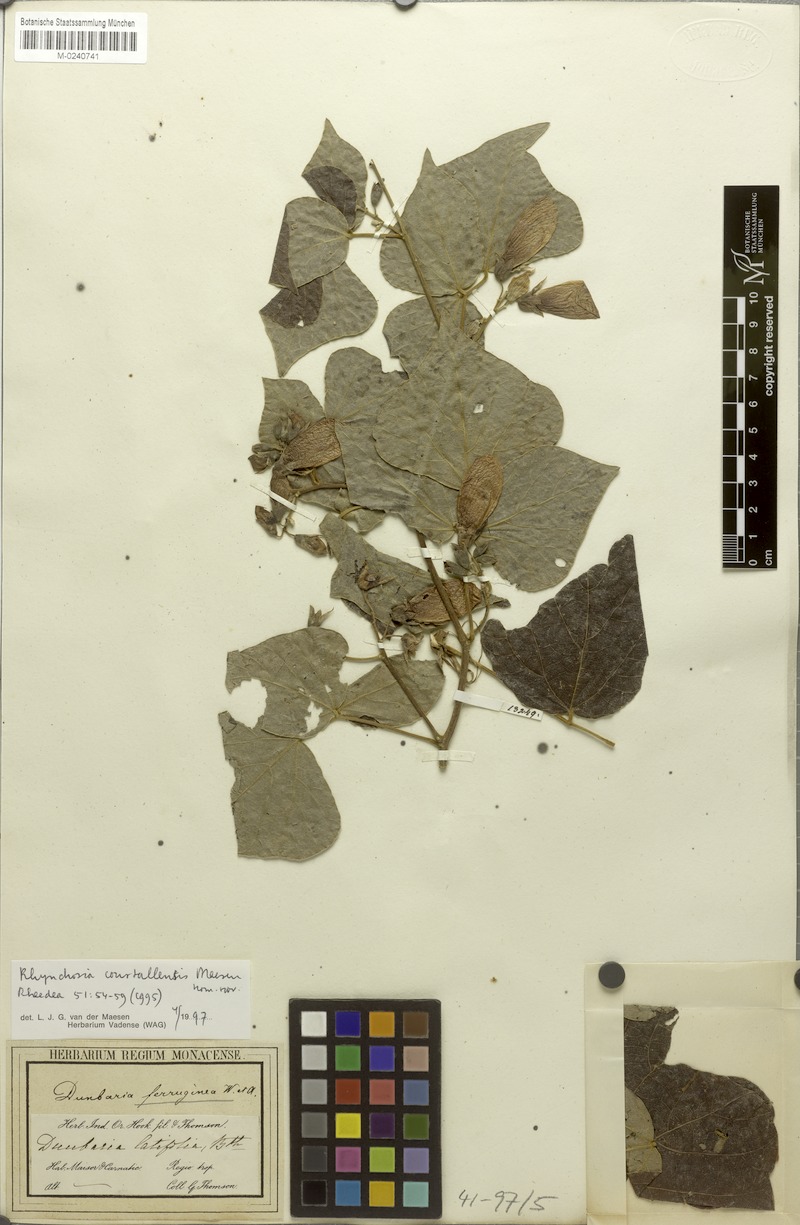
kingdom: Plantae
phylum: Tracheophyta
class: Magnoliopsida
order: Fabales
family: Fabaceae
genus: Rhynchosia
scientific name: Rhynchosia courtallensis
